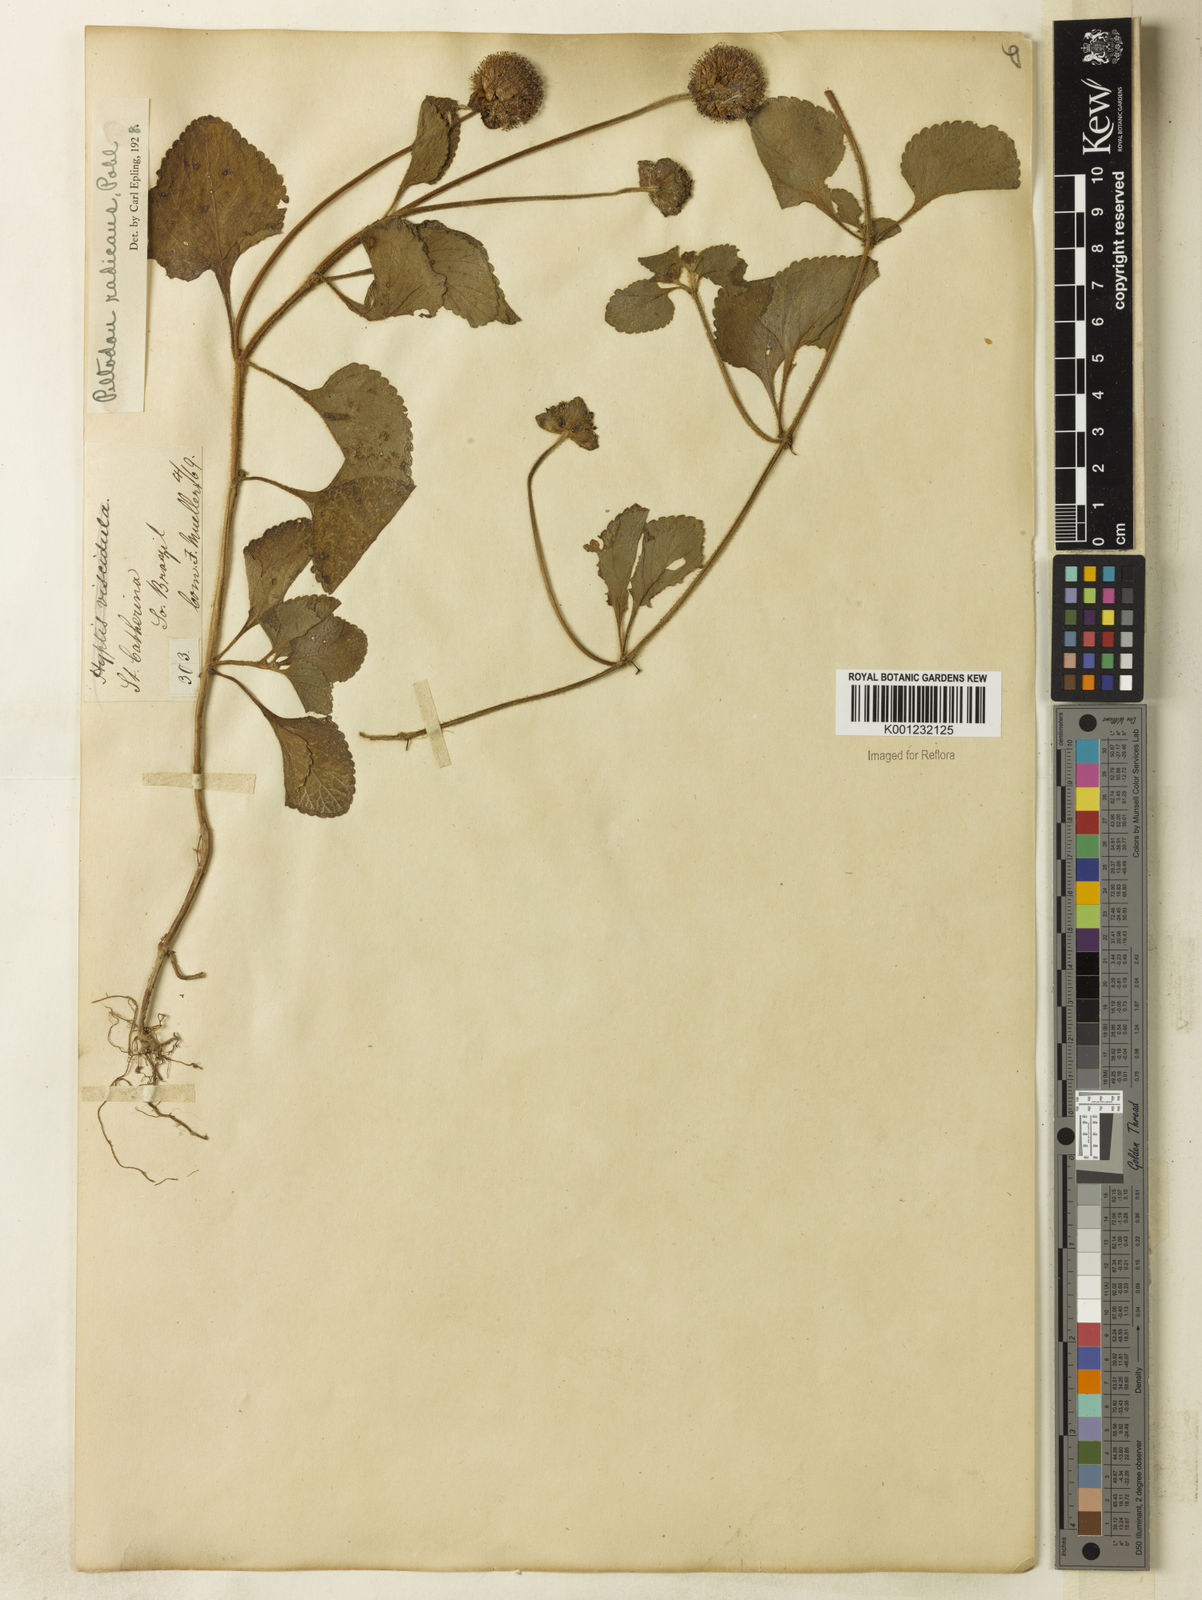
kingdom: Plantae
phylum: Tracheophyta
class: Magnoliopsida
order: Lamiales
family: Lamiaceae
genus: Hyptis
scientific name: Hyptis radicans
